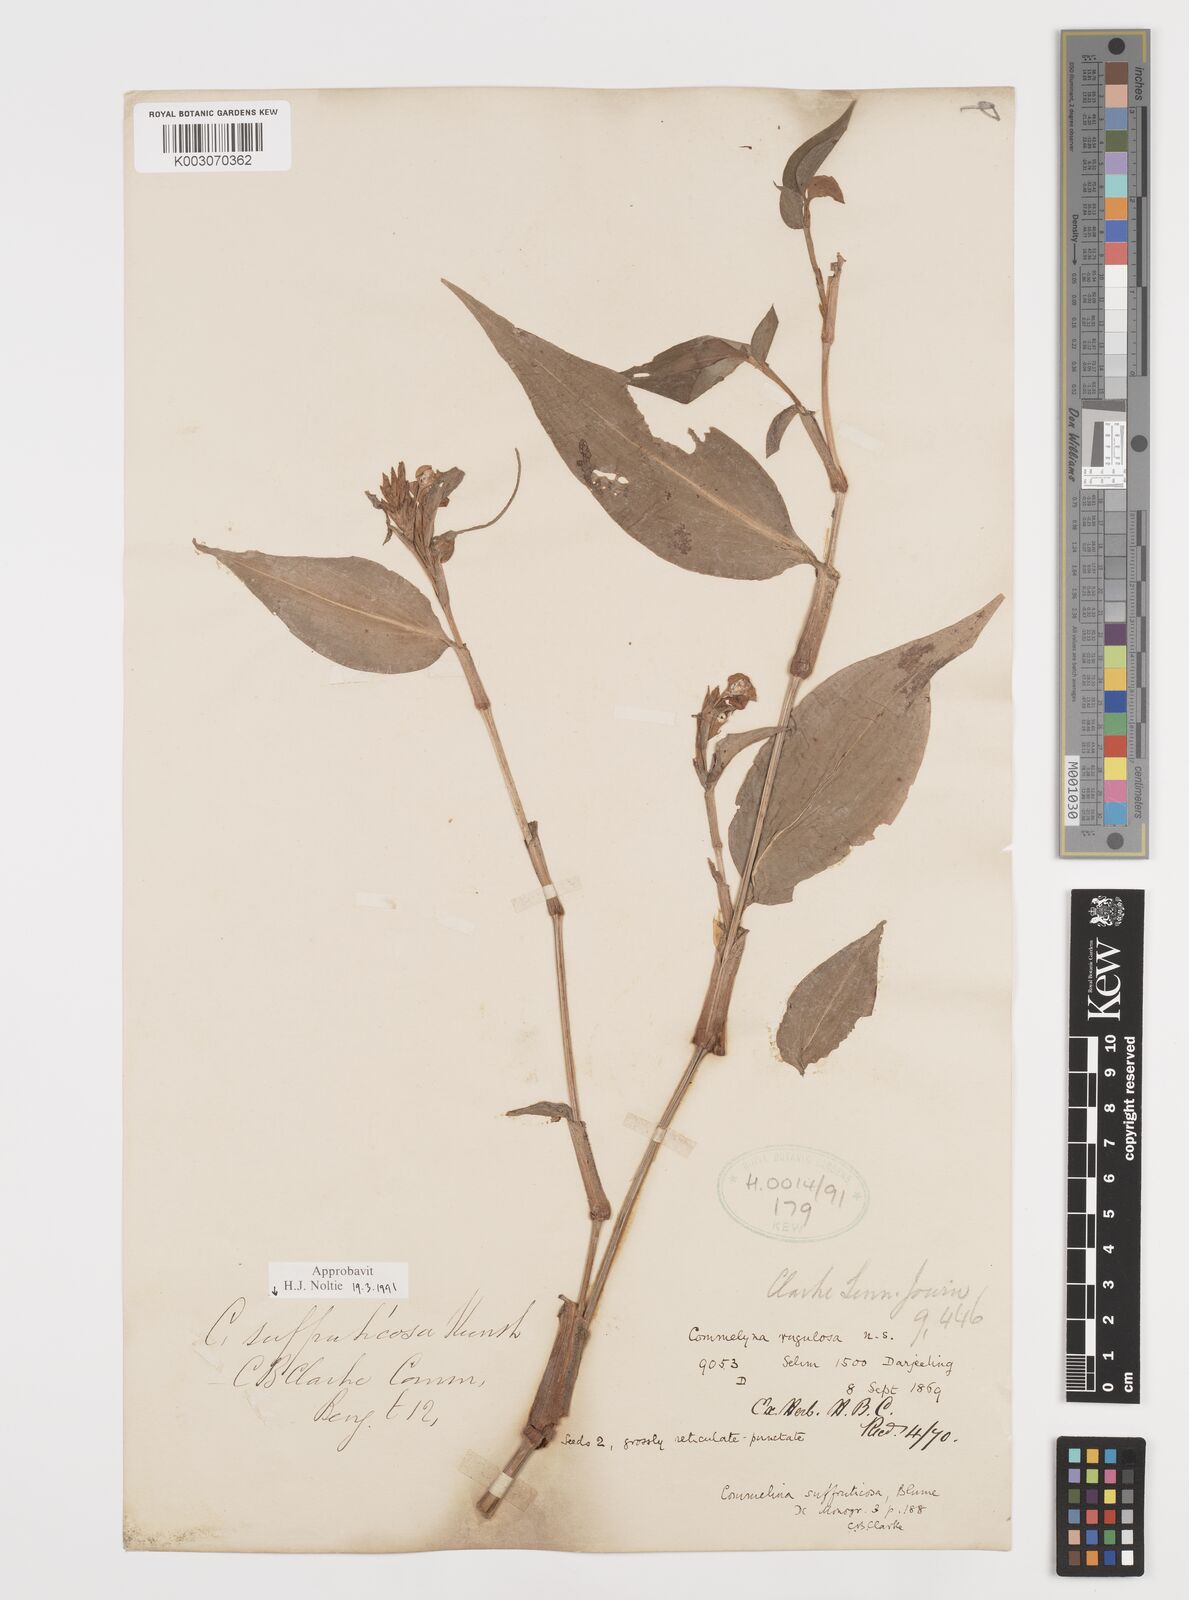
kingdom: Plantae
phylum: Tracheophyta
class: Liliopsida
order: Commelinales
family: Commelinaceae
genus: Commelina
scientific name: Commelina suffruticosa
